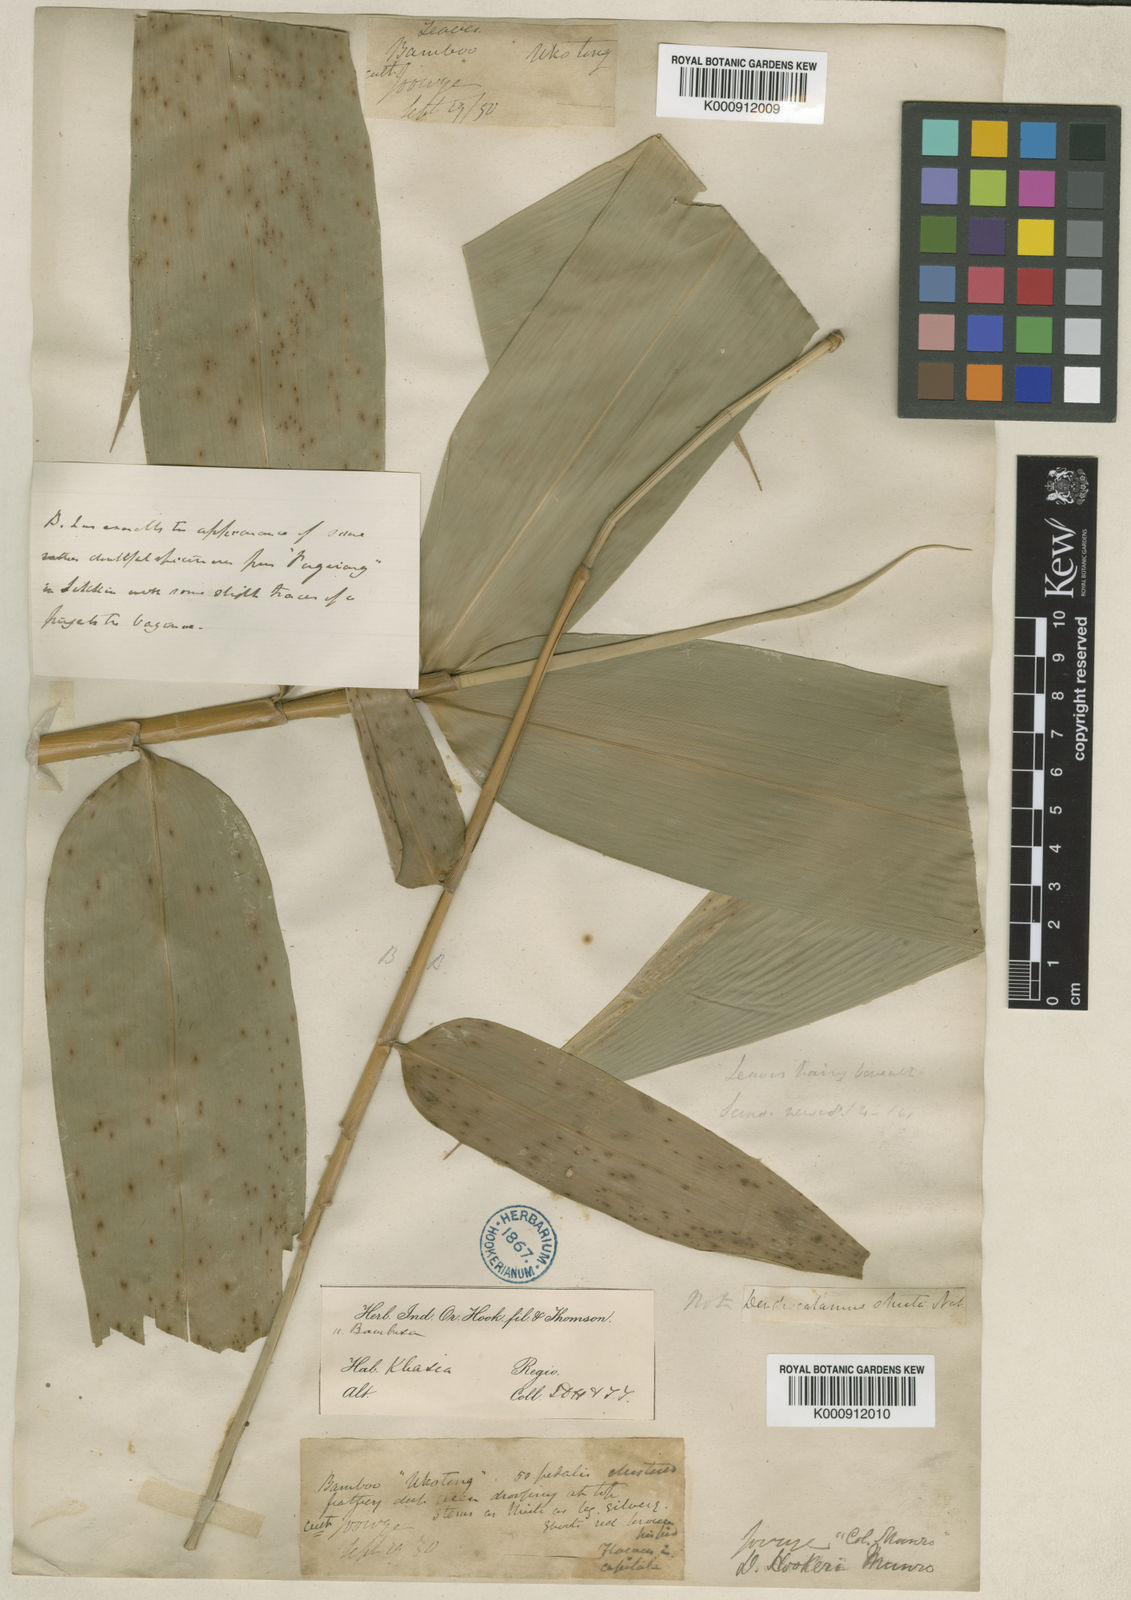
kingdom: Plantae
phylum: Tracheophyta
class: Liliopsida
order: Poales
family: Poaceae
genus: Dendrocalamus
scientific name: Dendrocalamus hookeri
